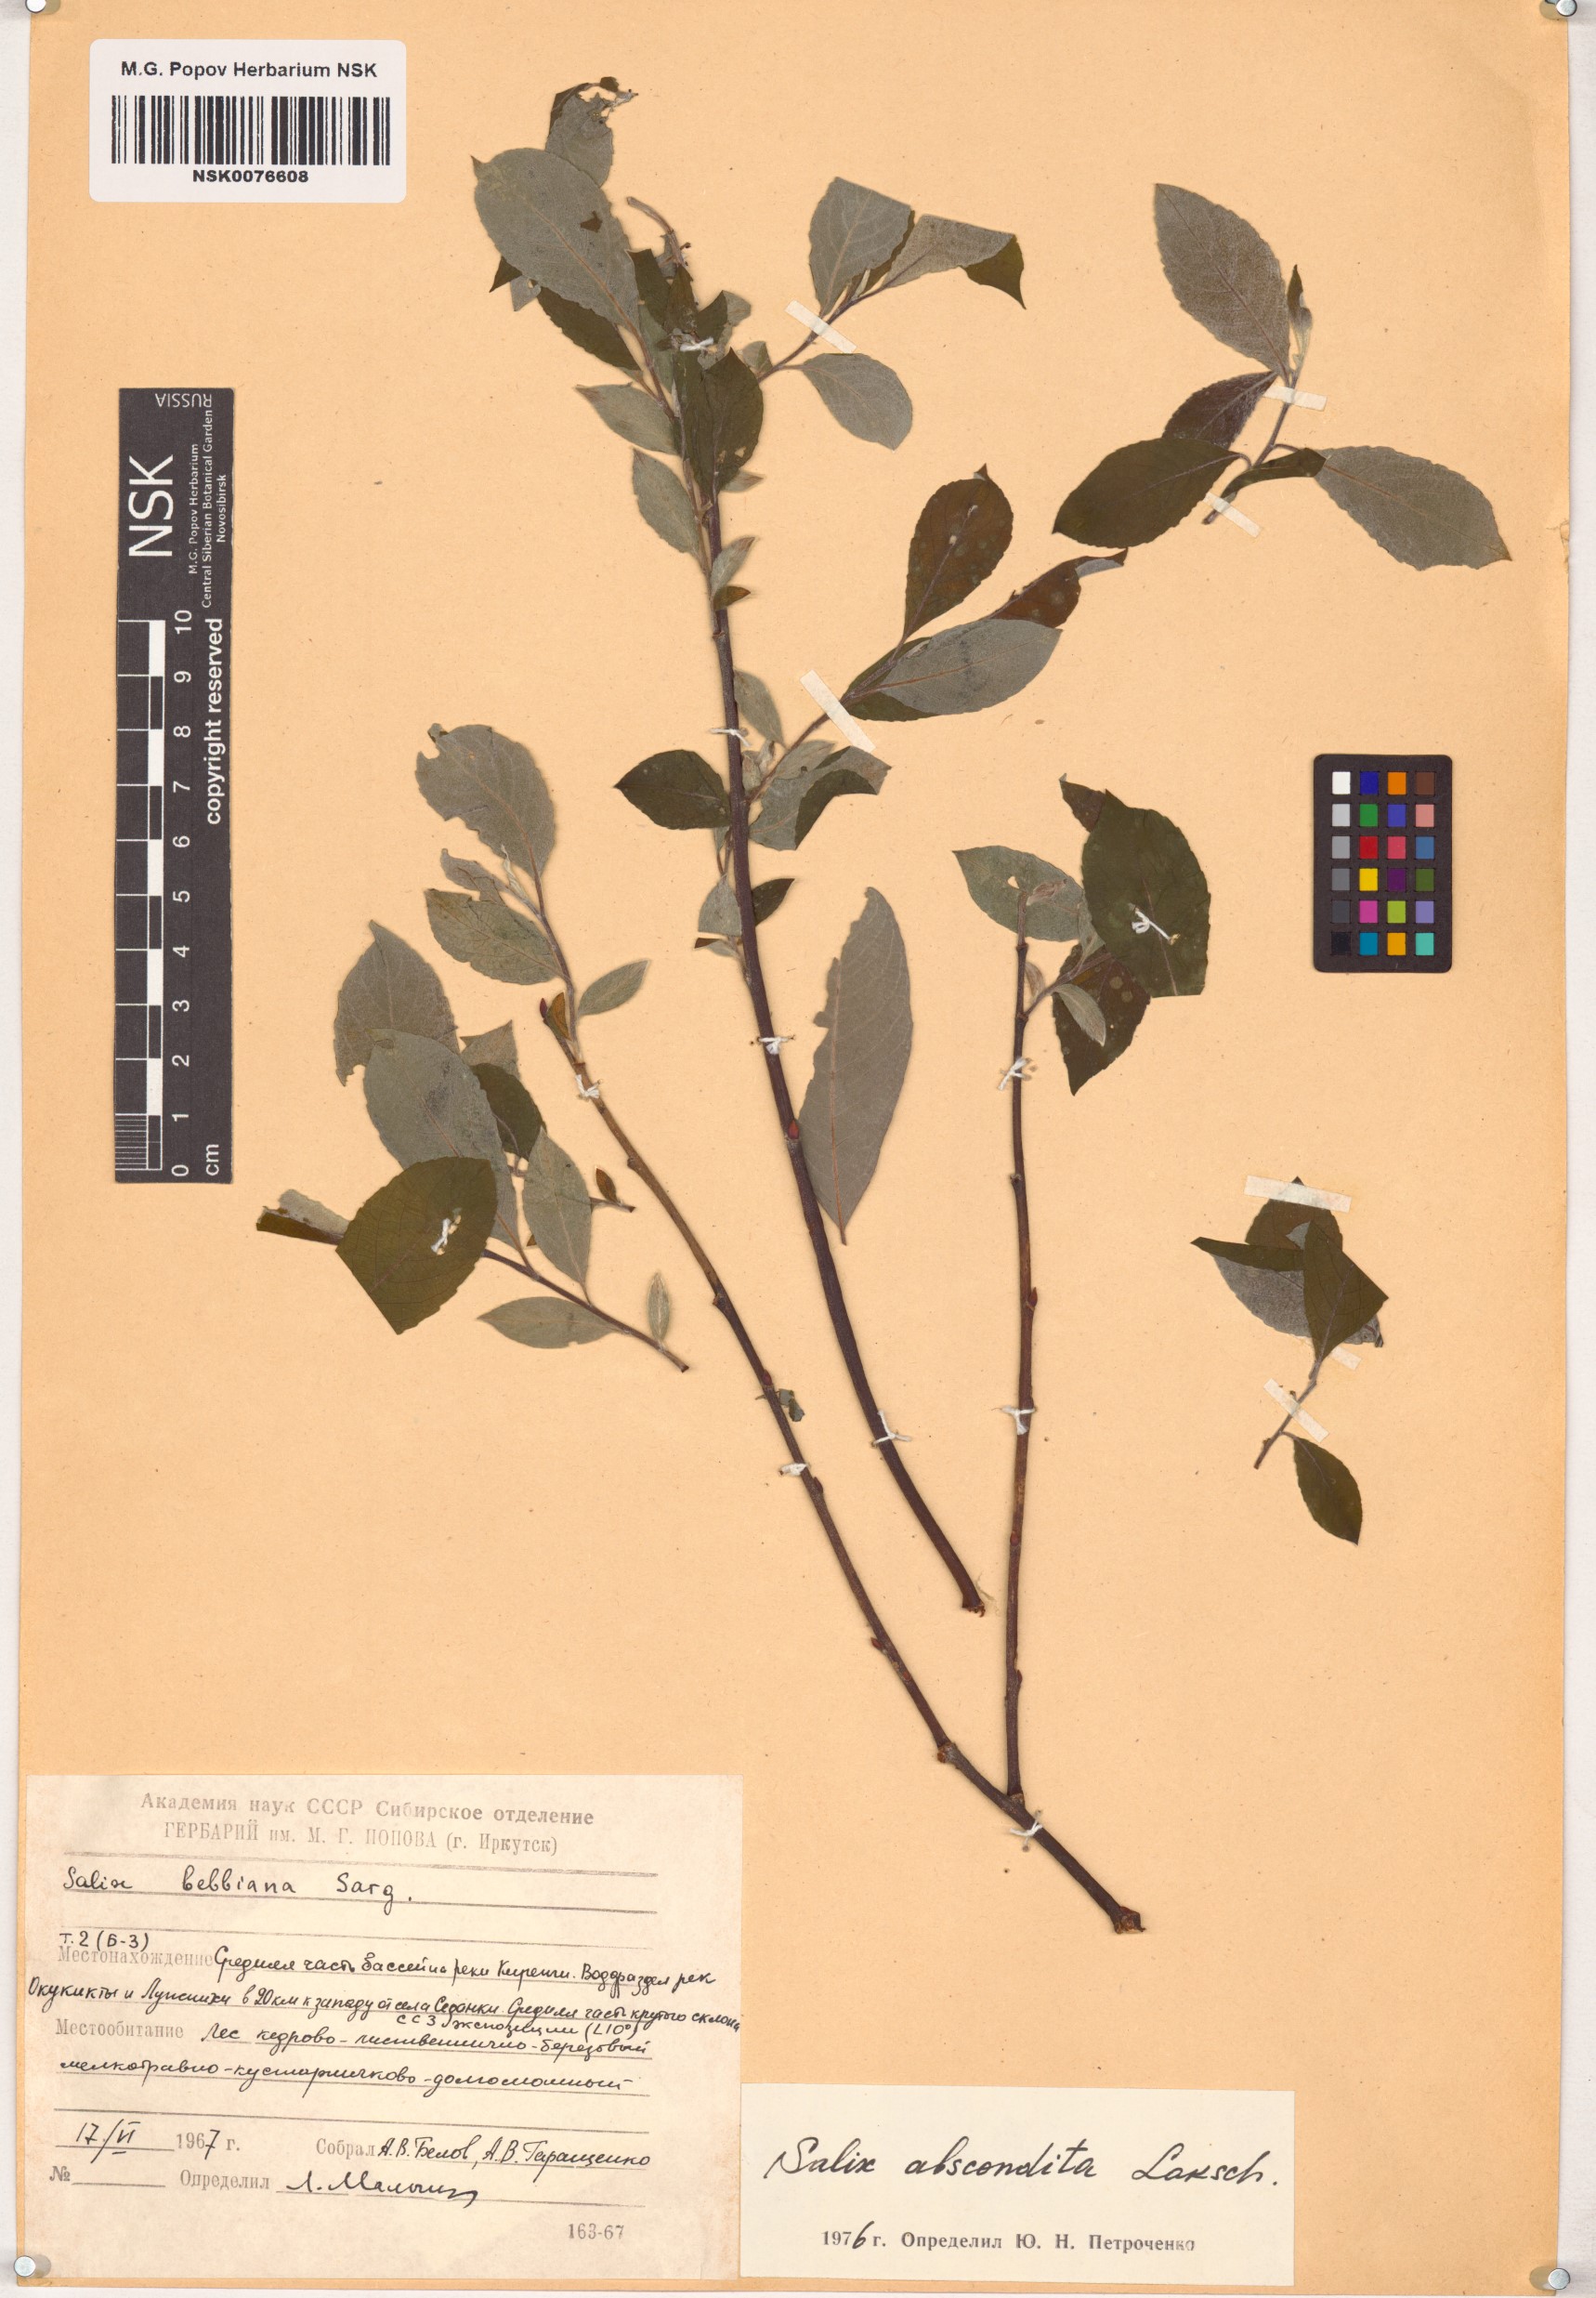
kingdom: Plantae
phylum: Tracheophyta
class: Magnoliopsida
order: Malpighiales
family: Salicaceae
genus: Salix
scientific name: Salix abscondita
